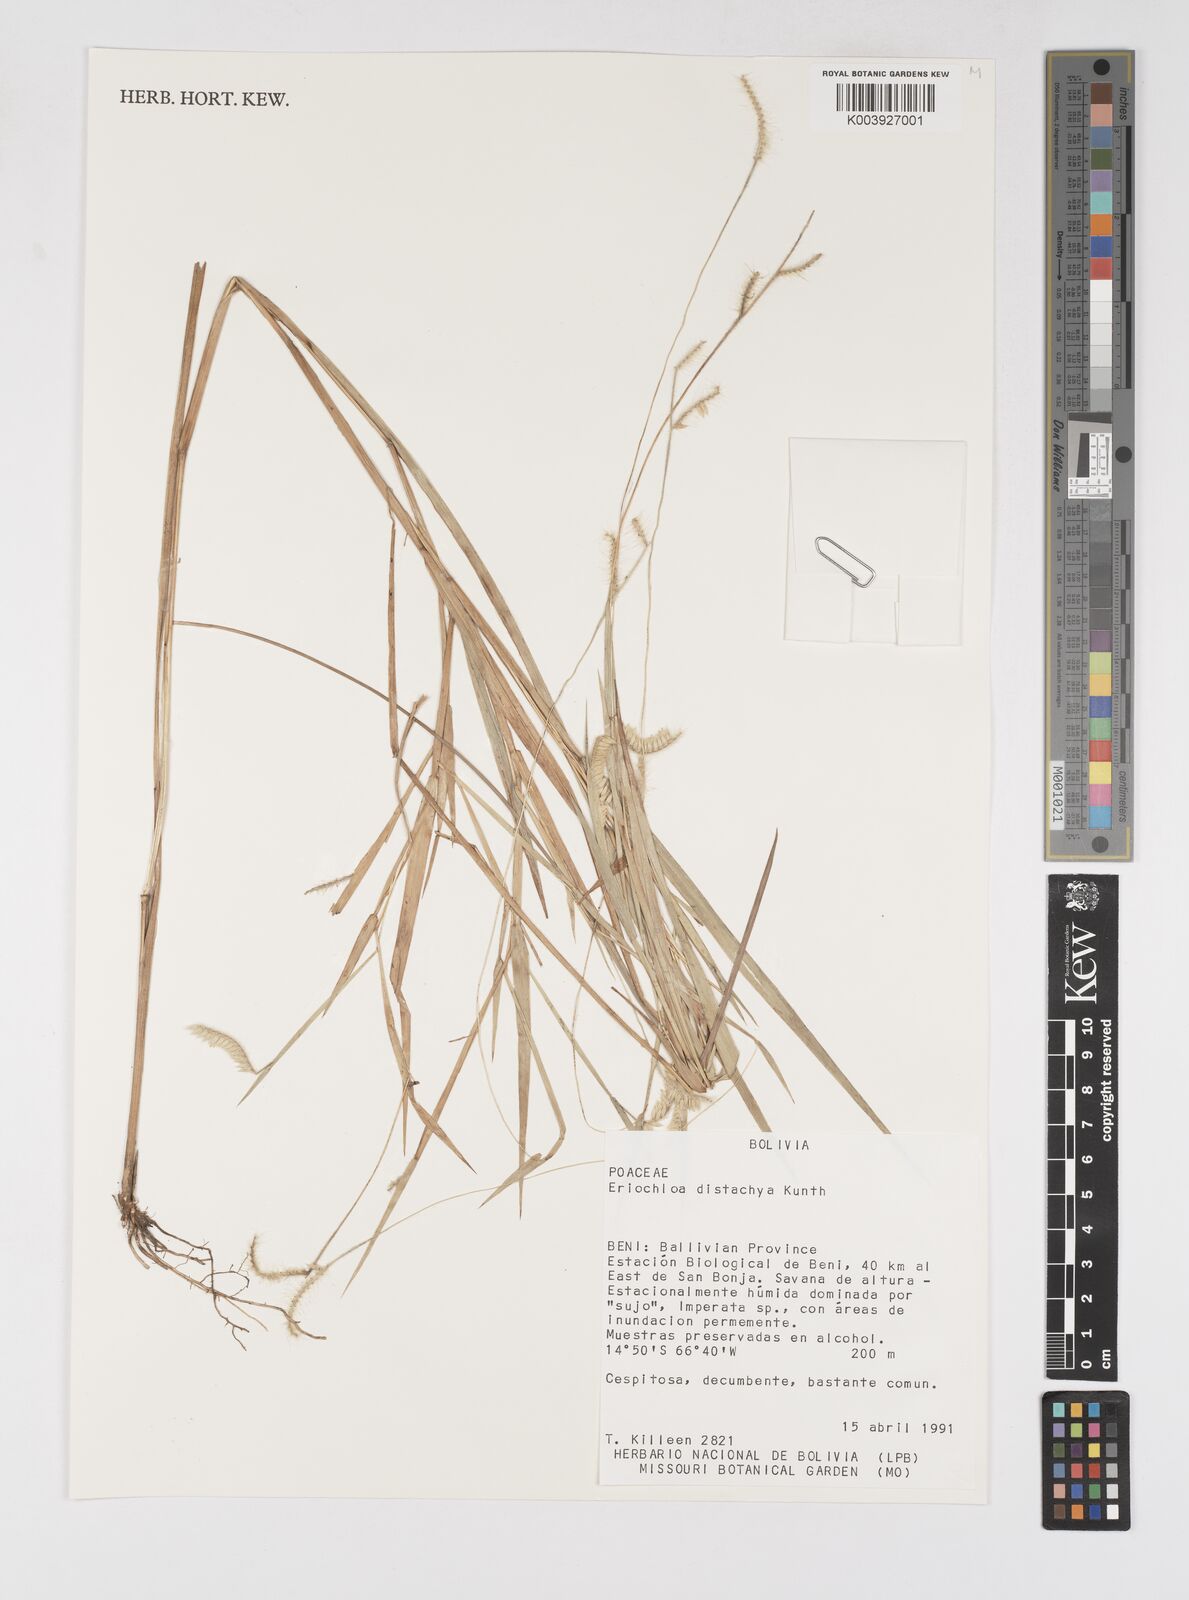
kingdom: Plantae
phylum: Tracheophyta
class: Liliopsida
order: Poales
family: Poaceae
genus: Eriochloa
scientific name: Eriochloa distachya
